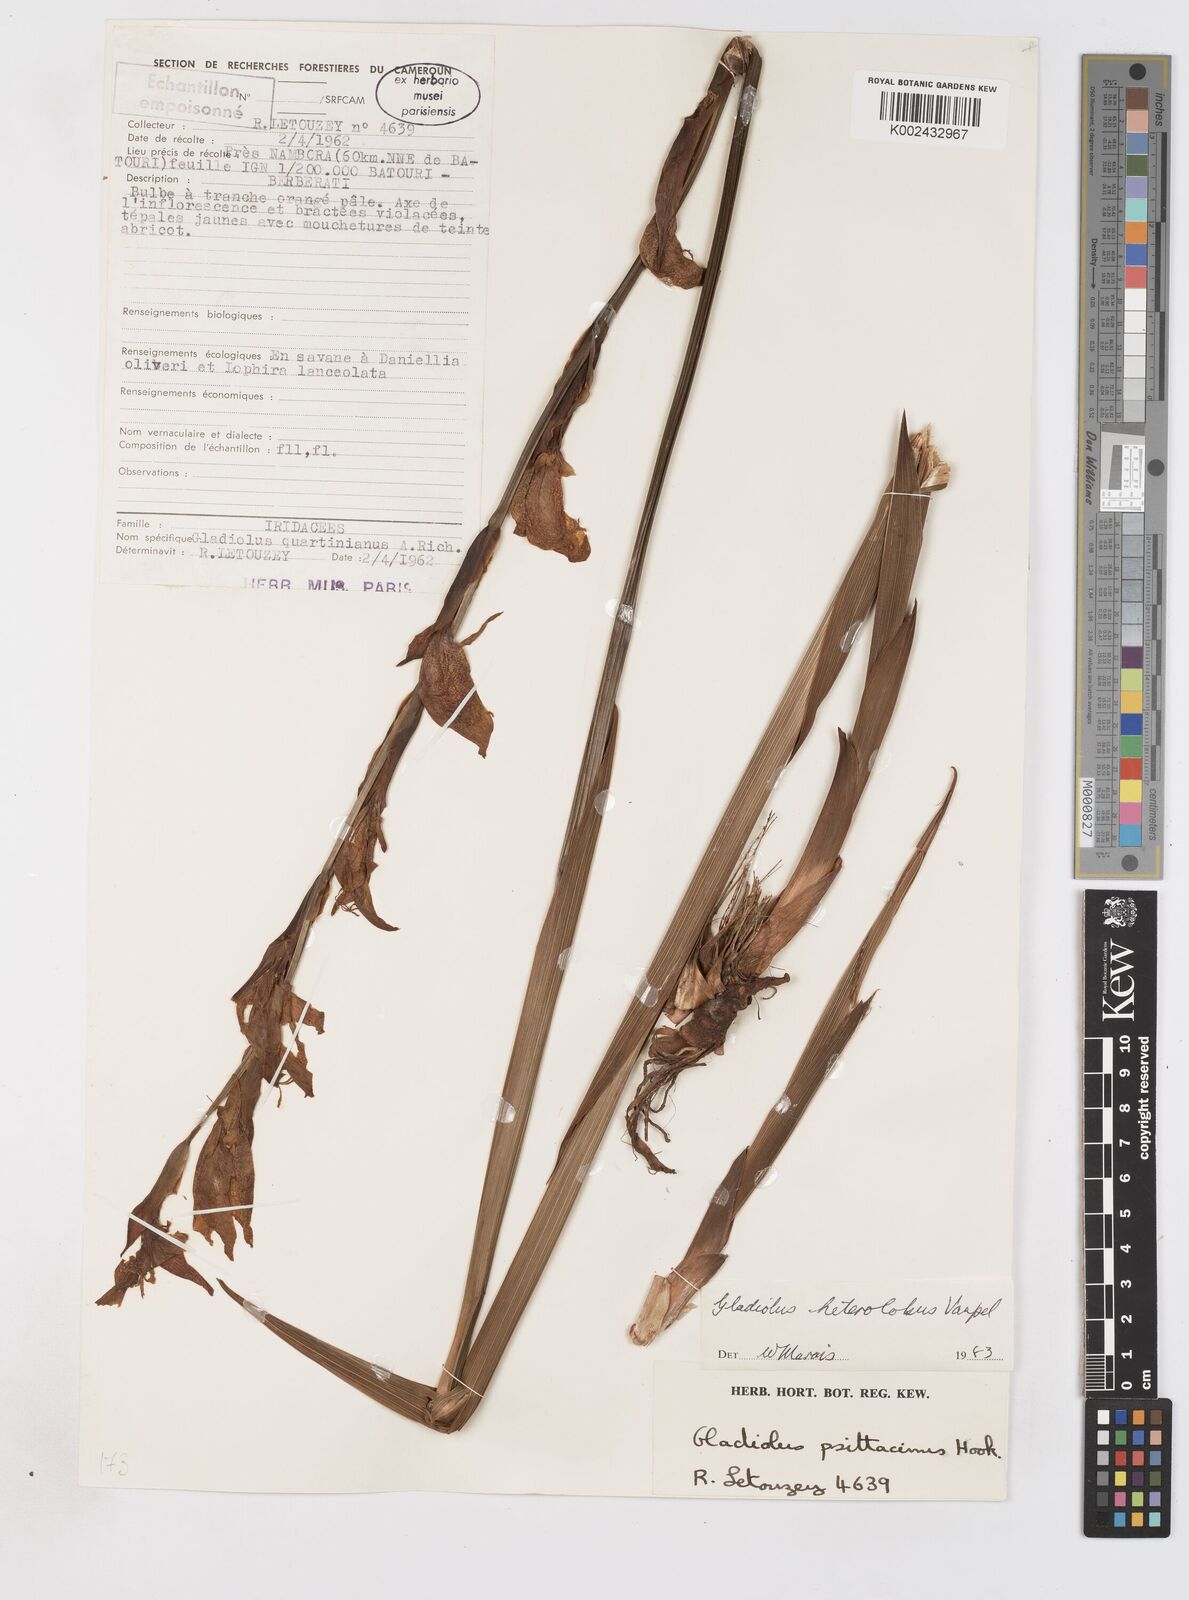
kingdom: Plantae
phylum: Tracheophyta
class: Liliopsida
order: Asparagales
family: Iridaceae
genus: Gladiolus
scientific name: Gladiolus roseolus
